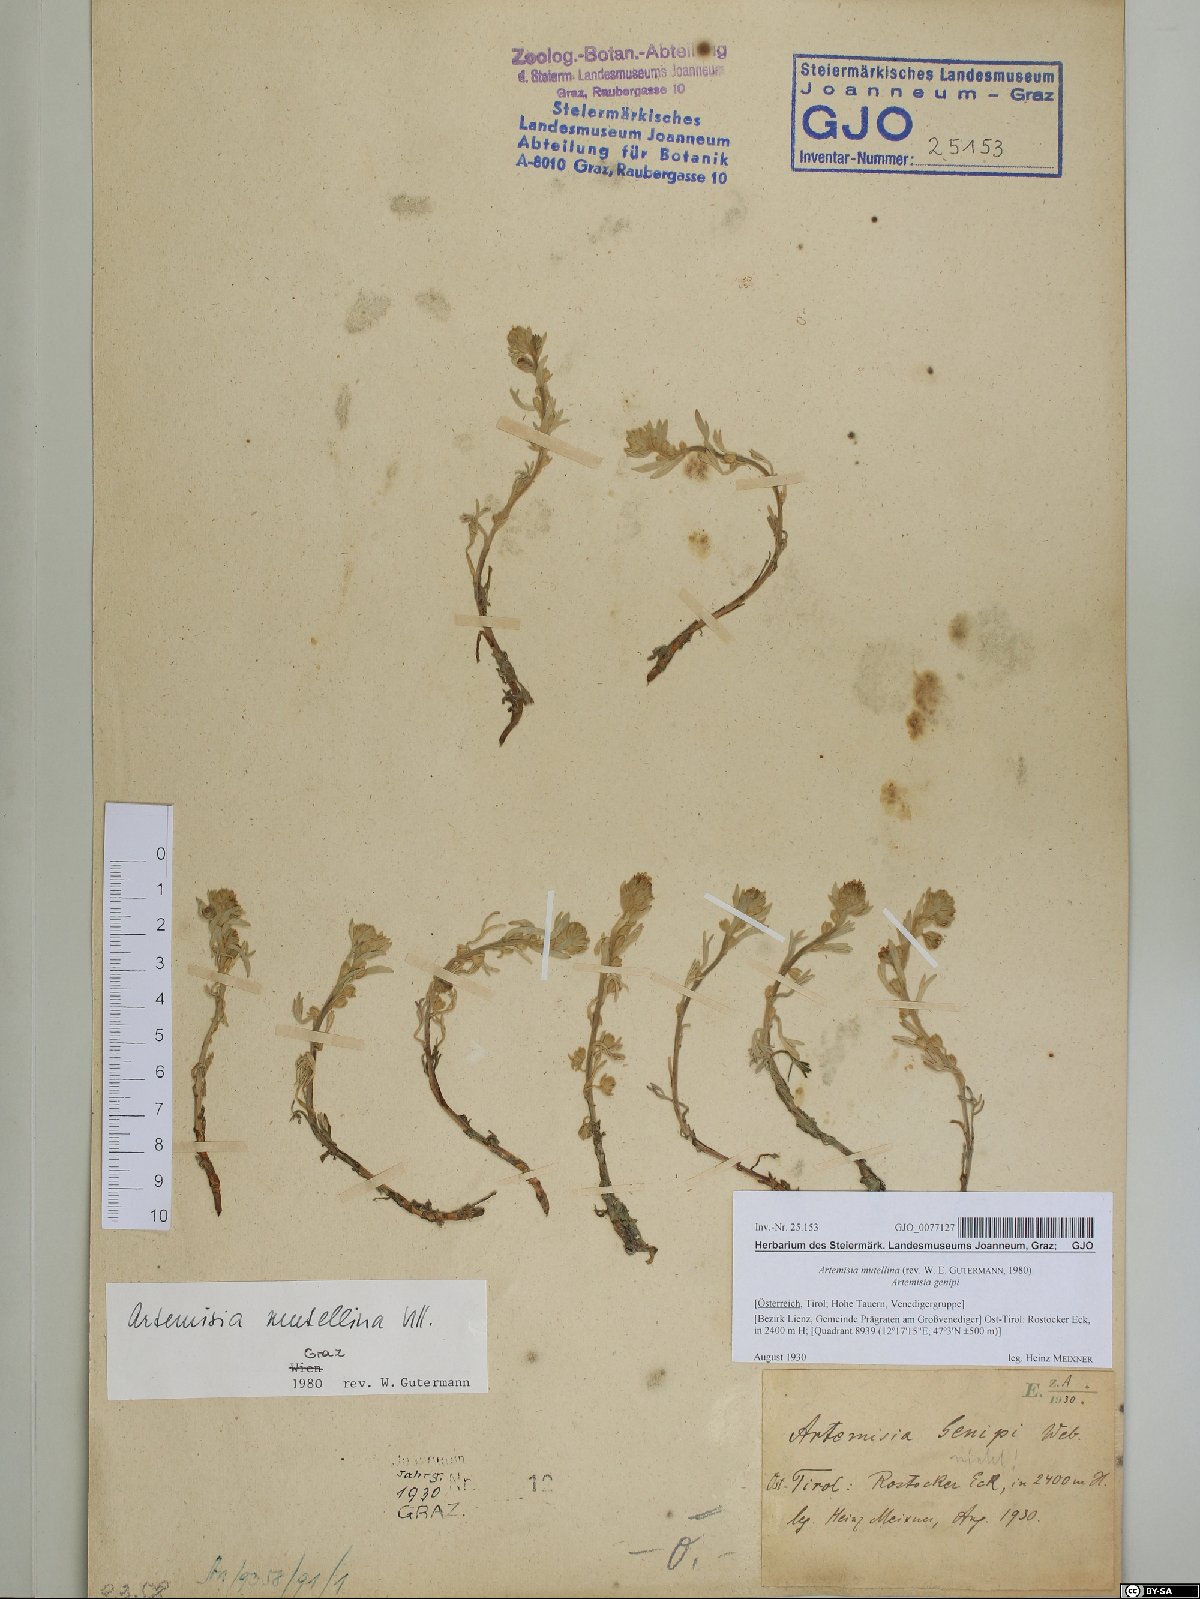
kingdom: Plantae
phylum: Tracheophyta
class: Magnoliopsida
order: Asterales
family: Asteraceae
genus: Artemisia
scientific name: Artemisia mutellina
